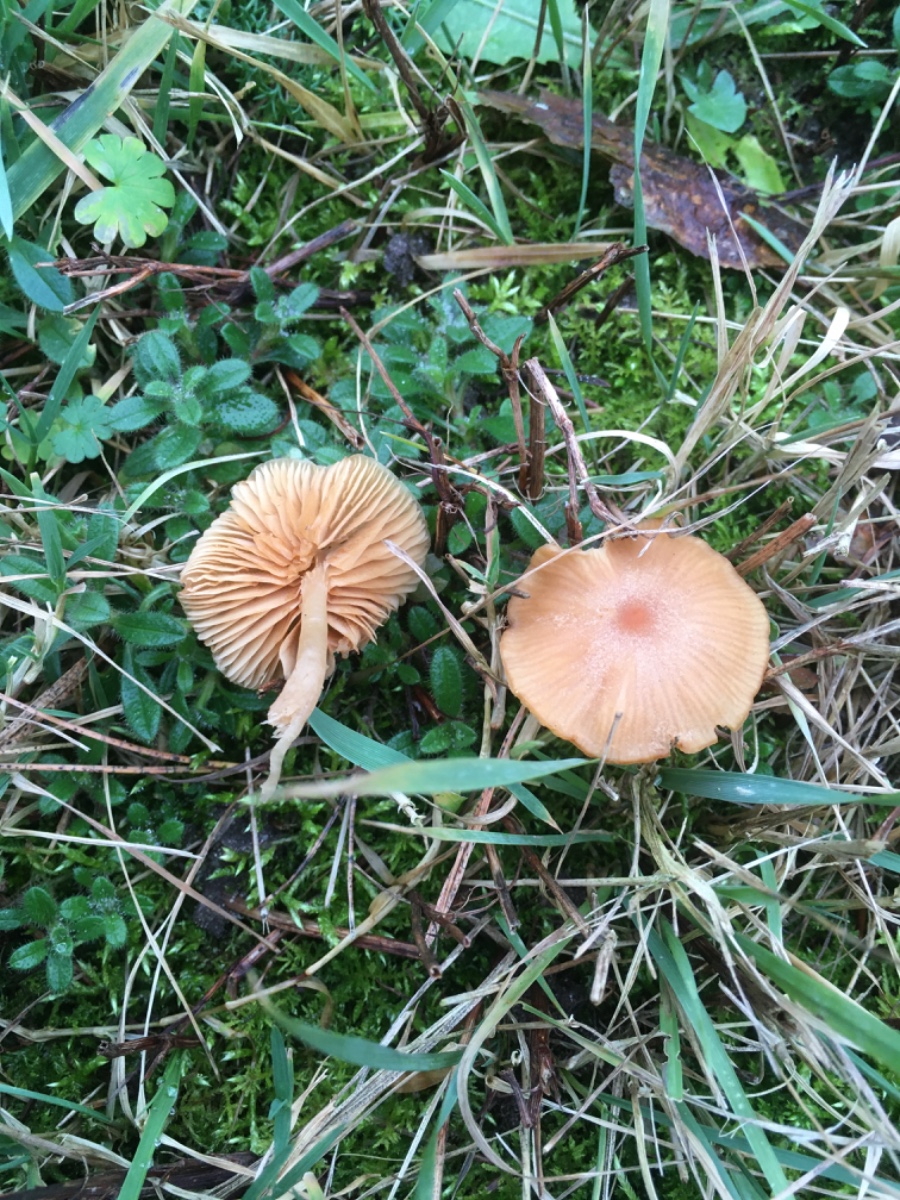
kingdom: Fungi
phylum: Basidiomycota
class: Agaricomycetes
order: Agaricales
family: Tubariaceae
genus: Tubaria
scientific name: Tubaria furfuracea
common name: kliddet fnughat
